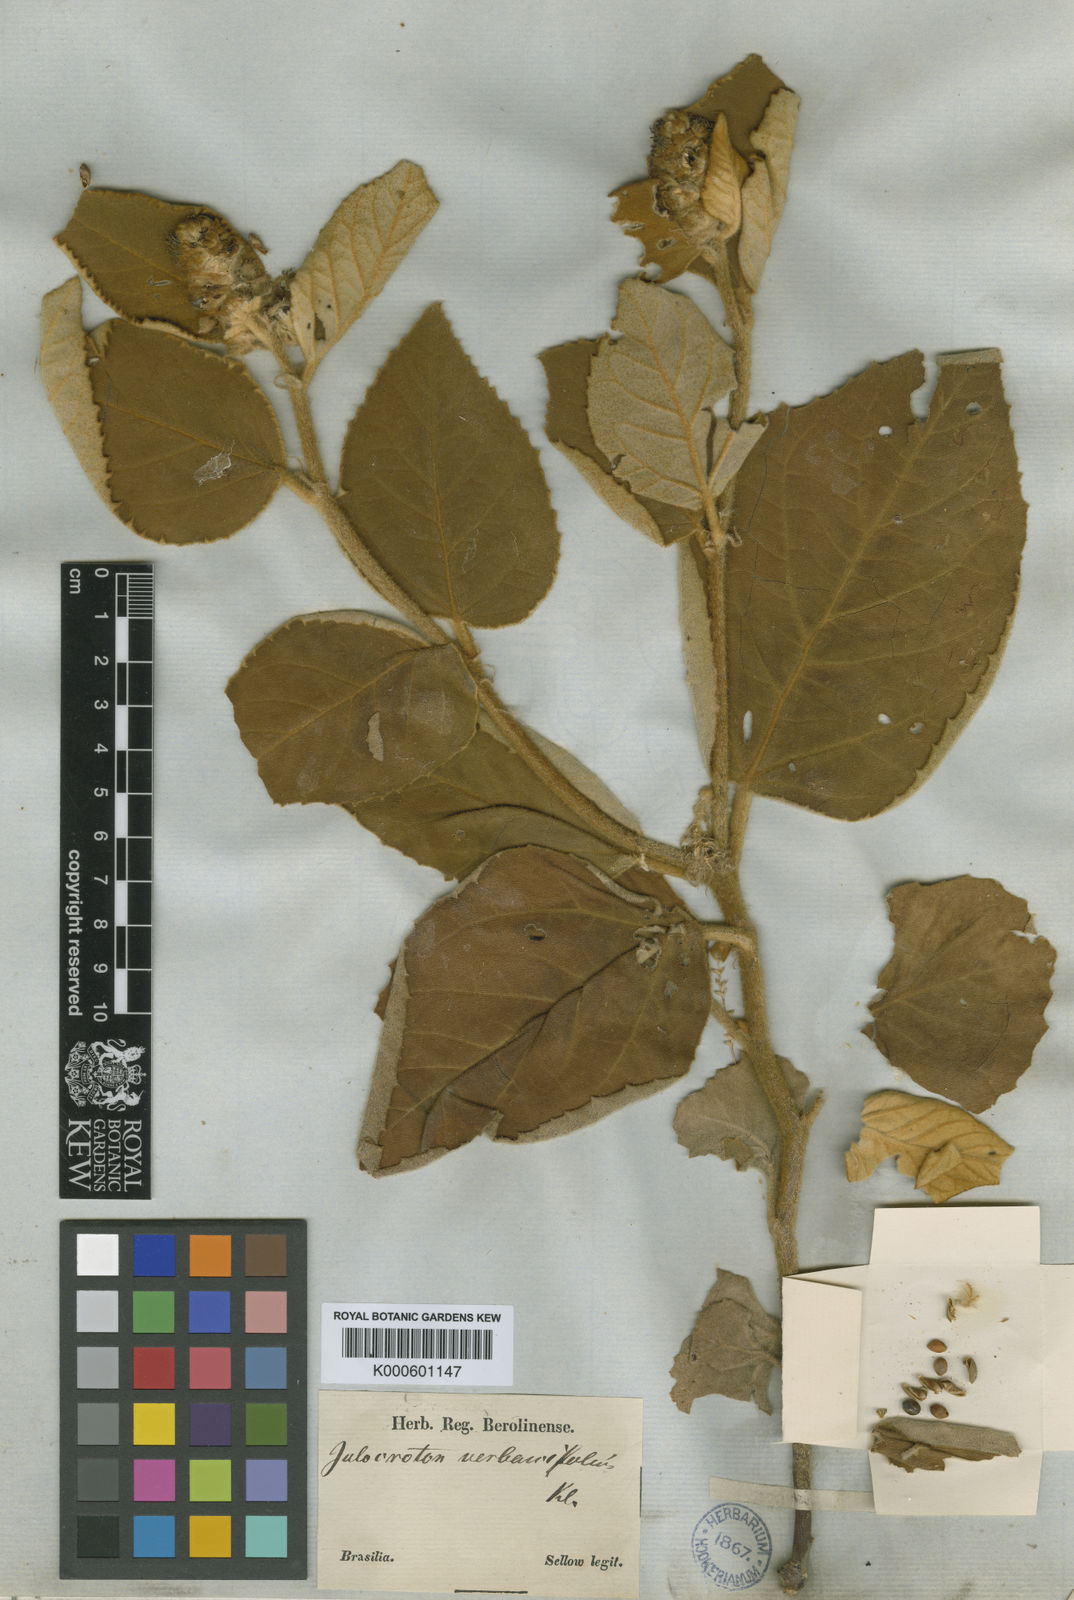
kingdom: Plantae
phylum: Tracheophyta
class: Magnoliopsida
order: Malpighiales
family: Euphorbiaceae
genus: Croton
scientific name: Croton
